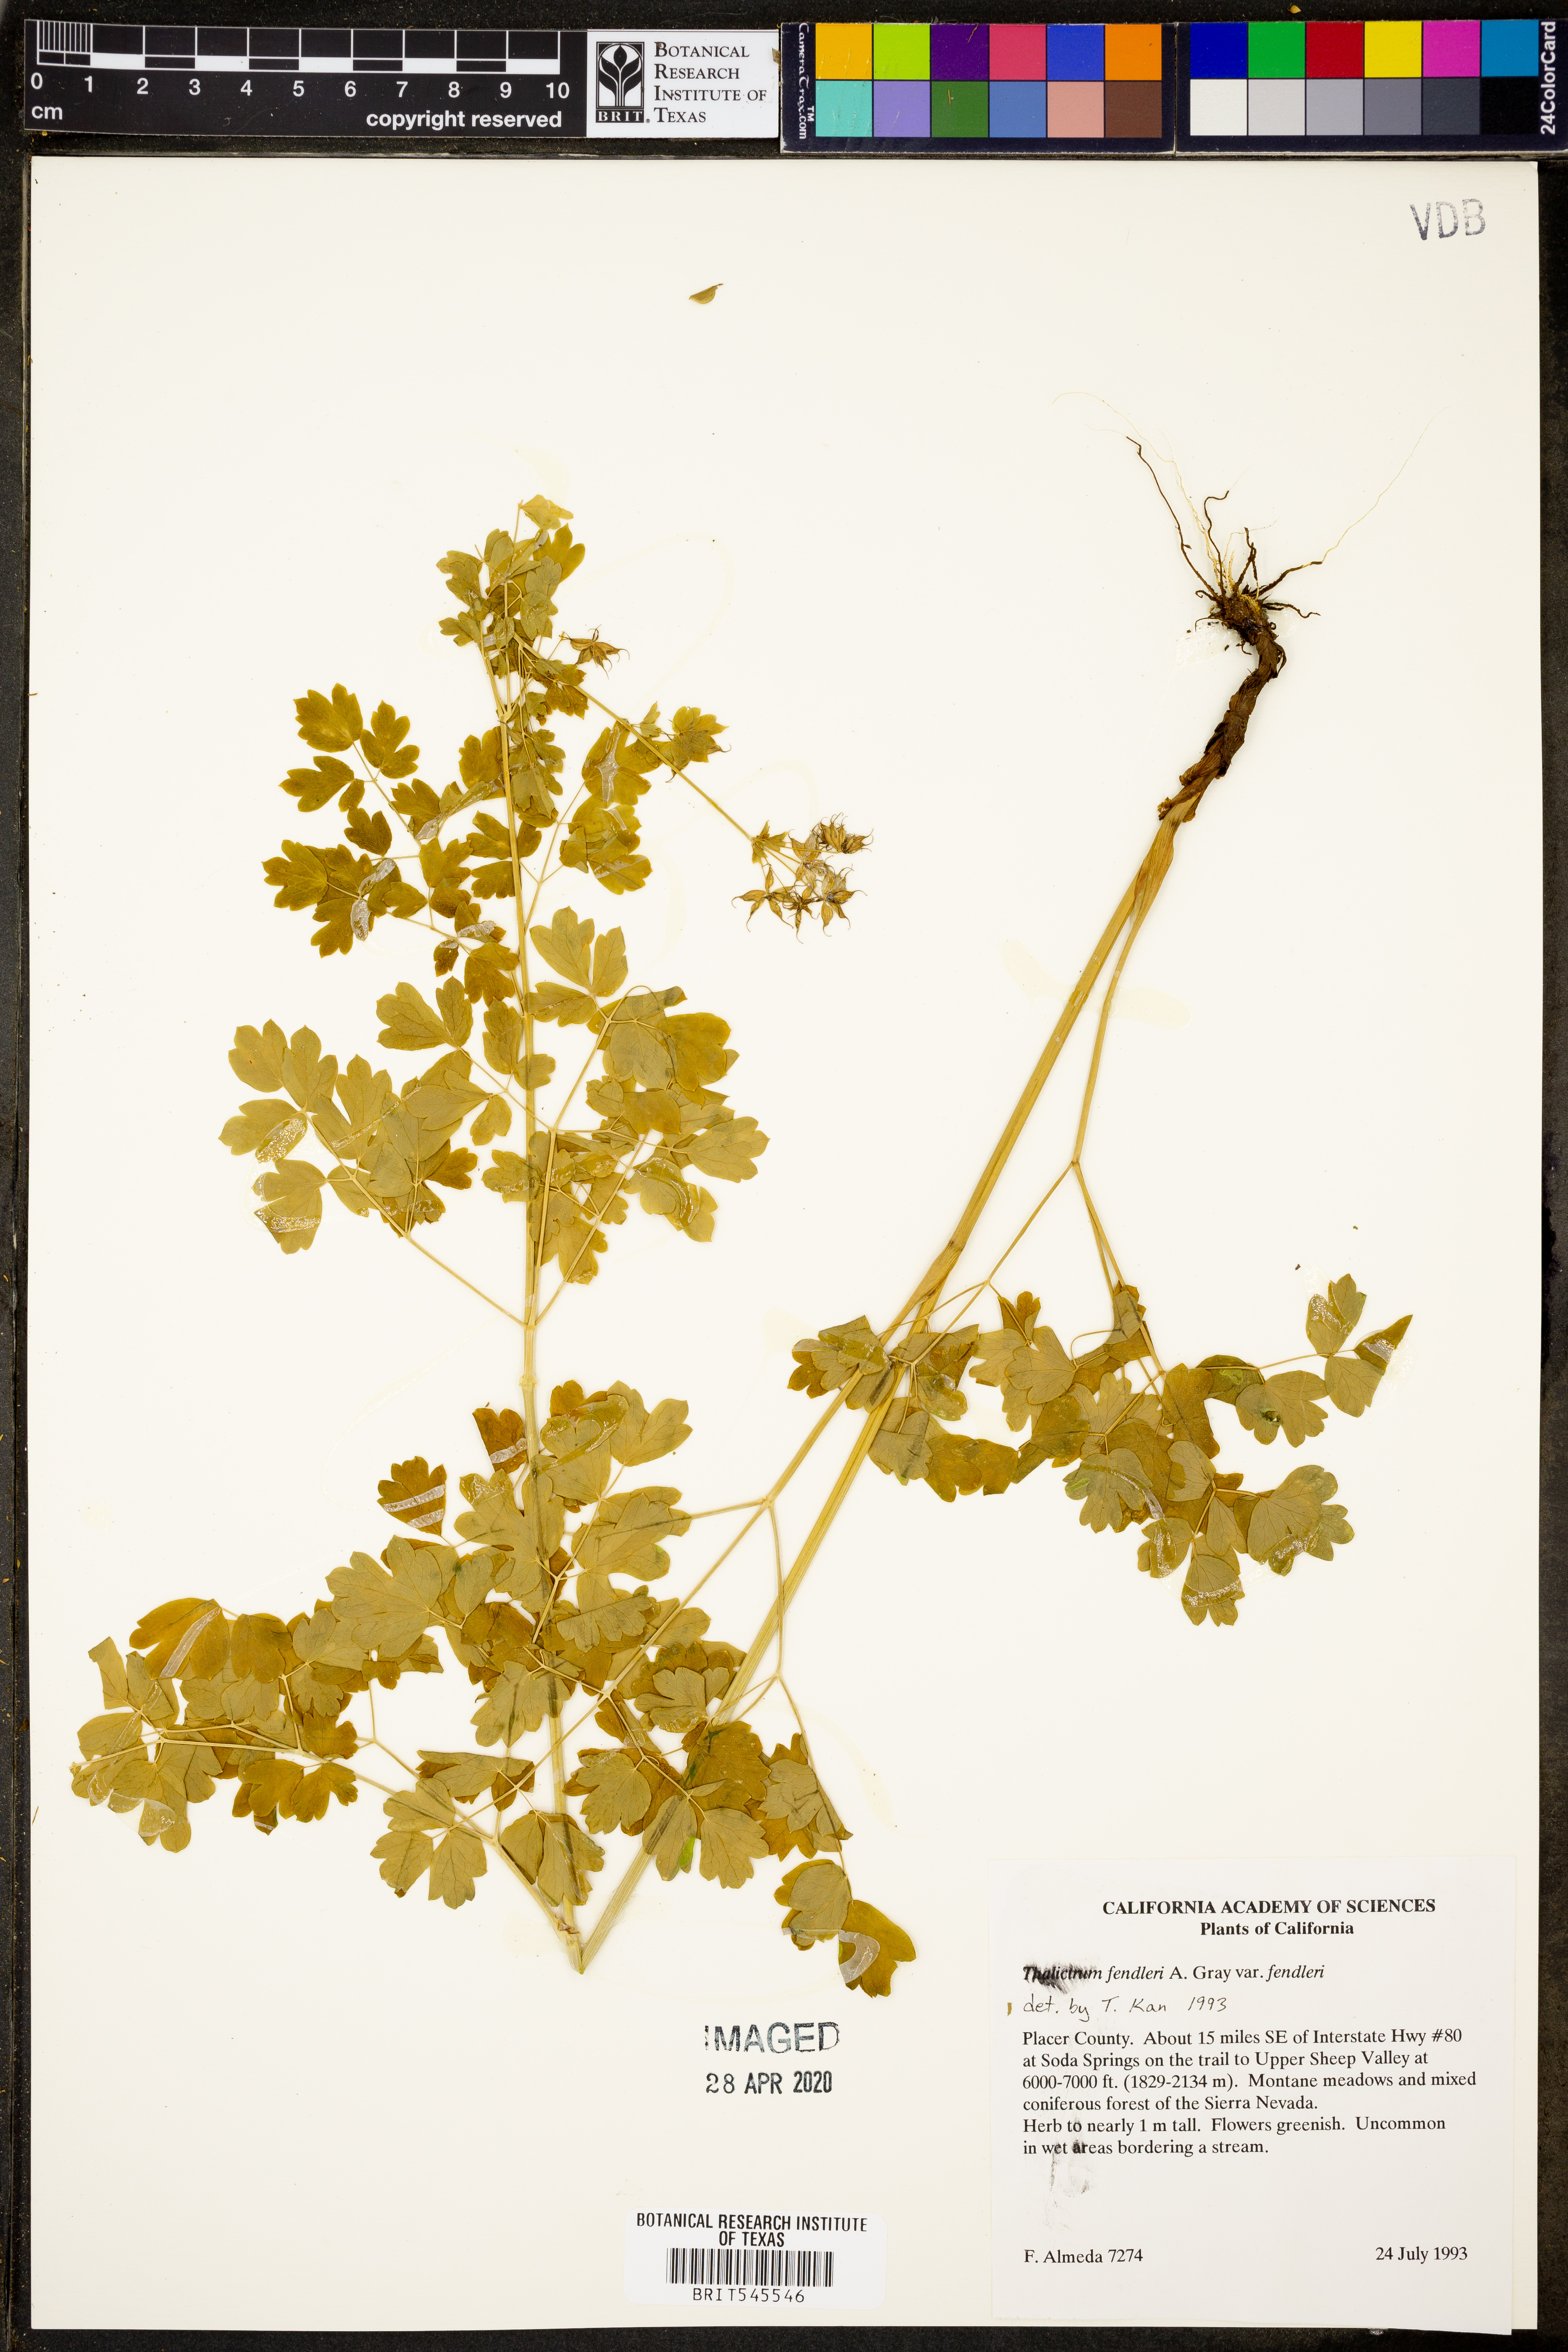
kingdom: Plantae
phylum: Tracheophyta
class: Magnoliopsida
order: Ranunculales
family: Ranunculaceae
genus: Thalictrum
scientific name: Thalictrum fendleri
